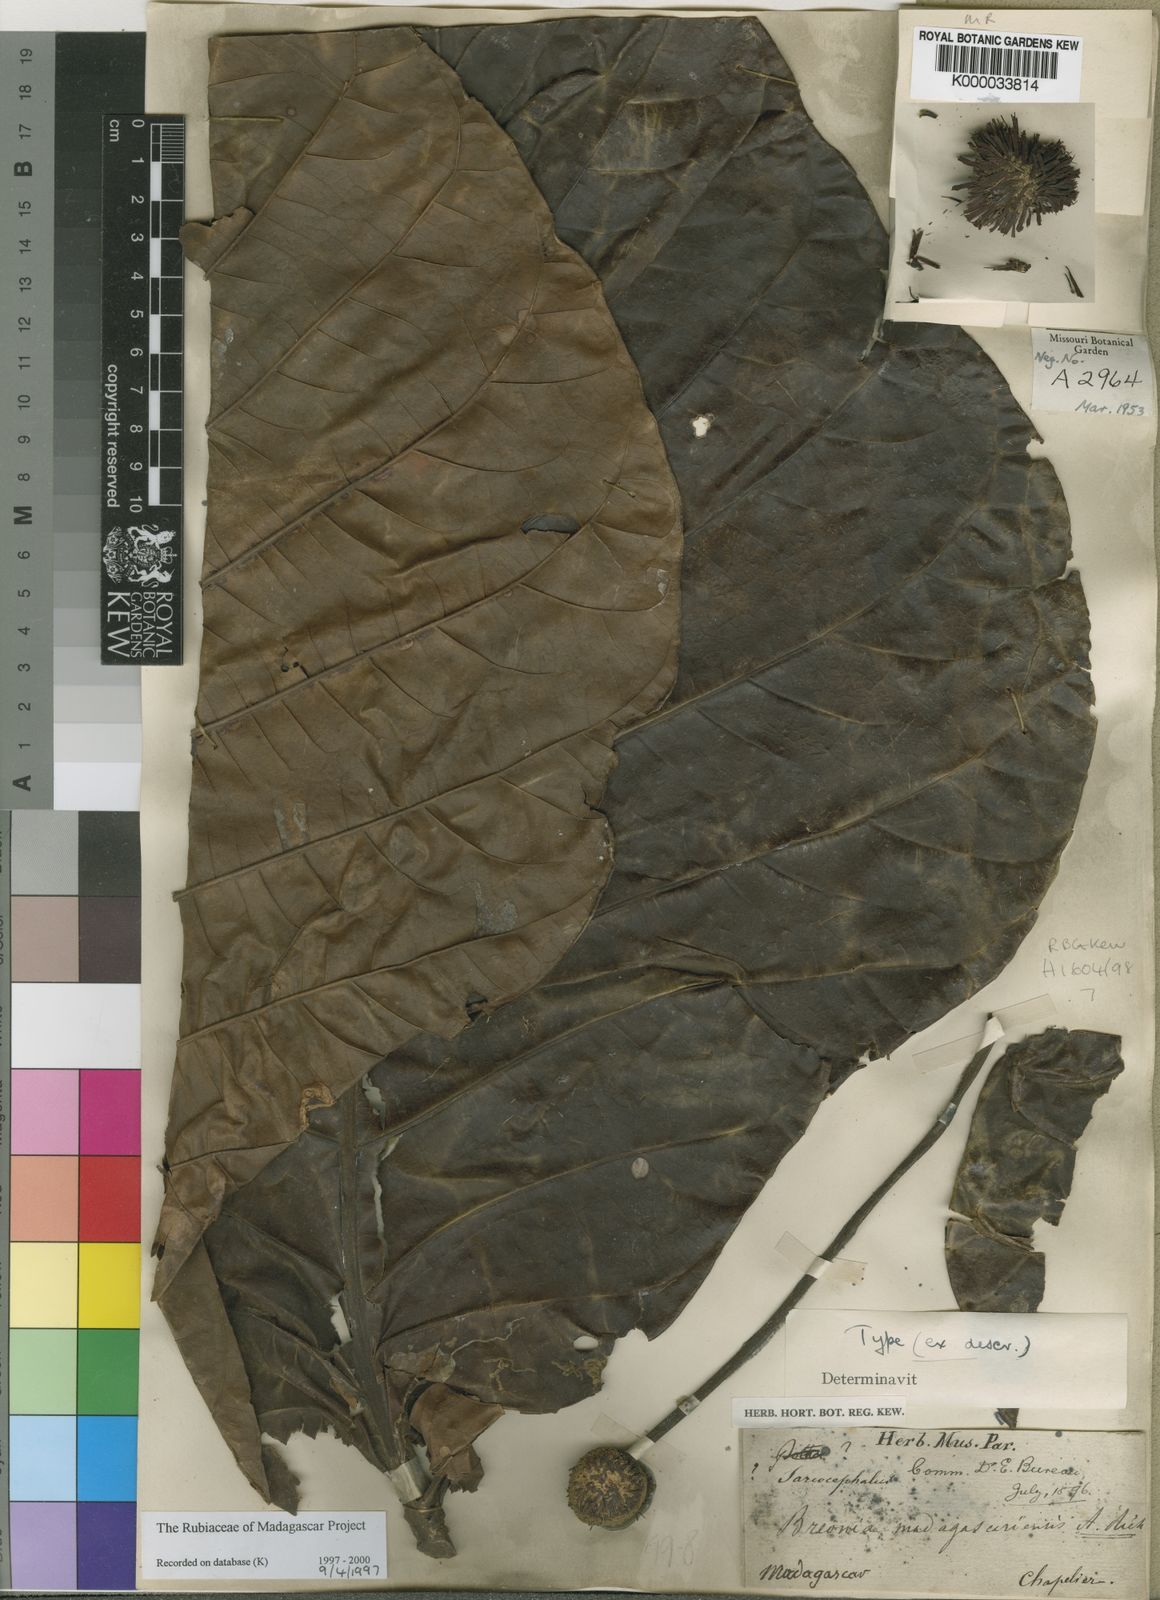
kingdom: Plantae
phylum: Tracheophyta
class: Magnoliopsida
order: Gentianales
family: Rubiaceae
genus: Breonia
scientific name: Breonia madagascariensis
